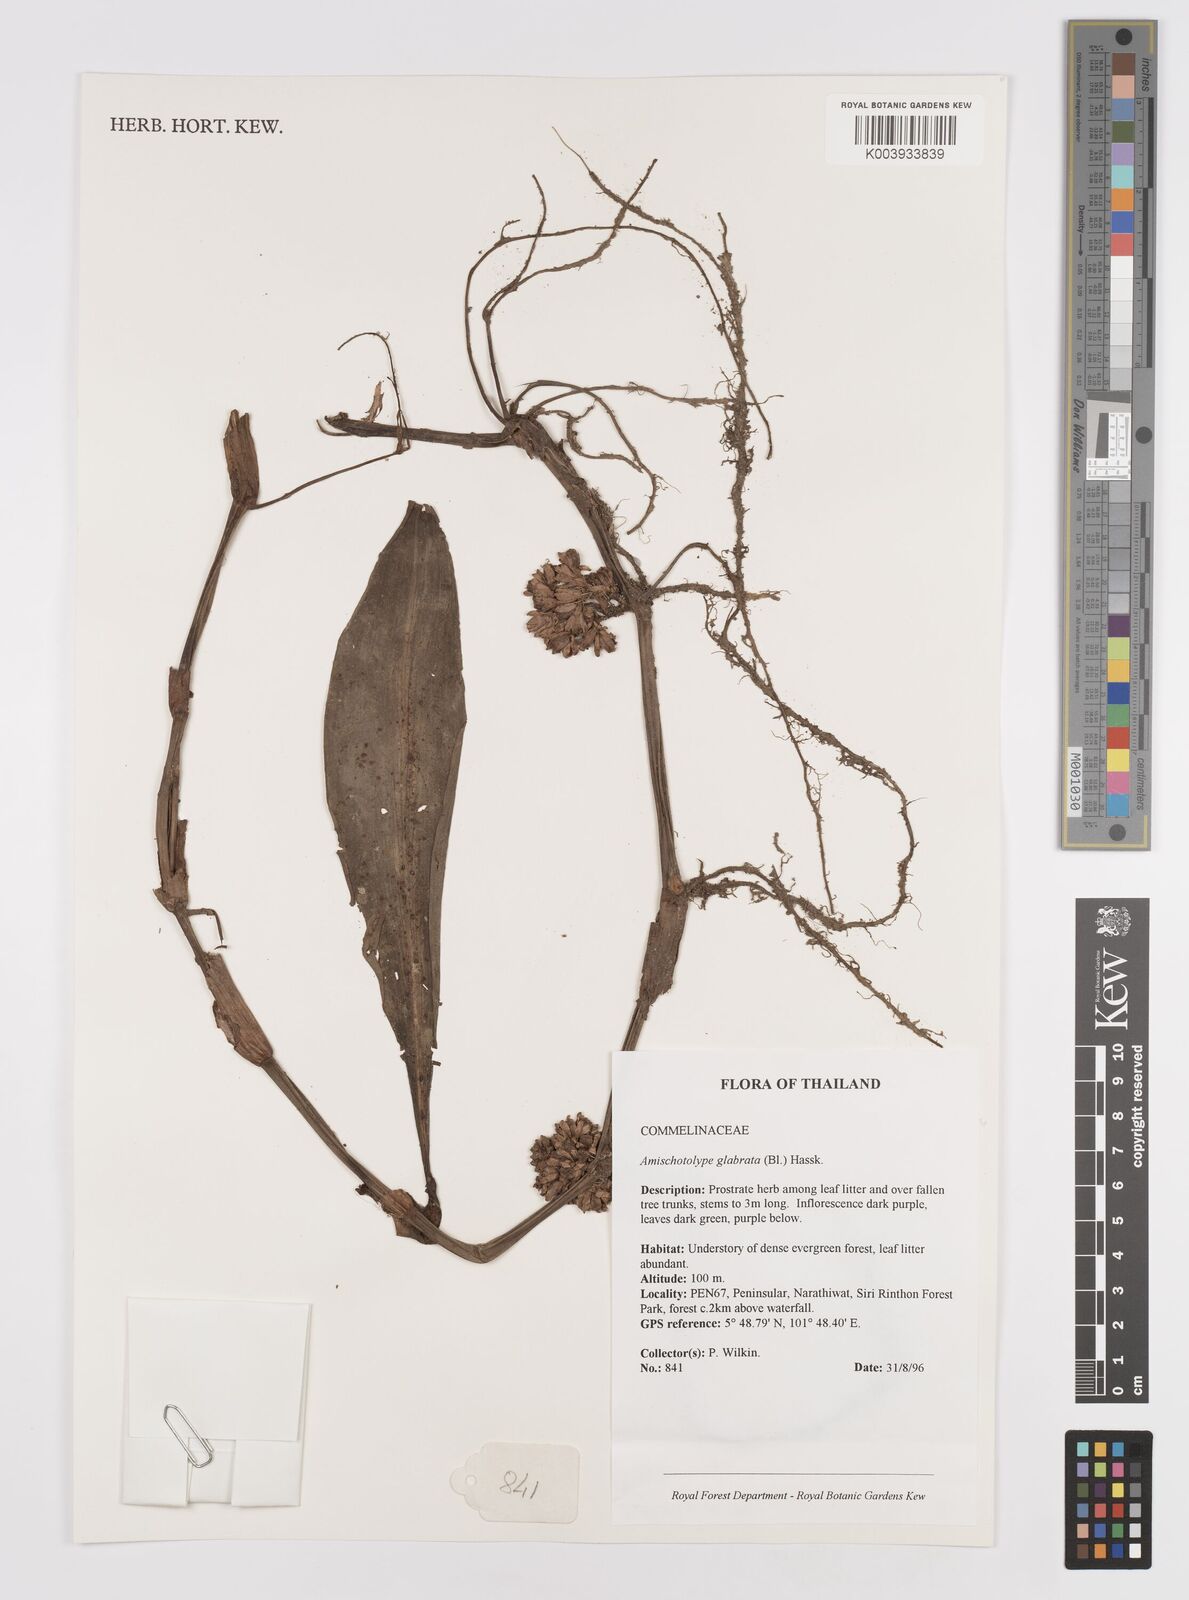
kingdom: Plantae
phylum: Tracheophyta
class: Liliopsida
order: Commelinales
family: Commelinaceae
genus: Amischotolype
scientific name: Amischotolype glabrata
